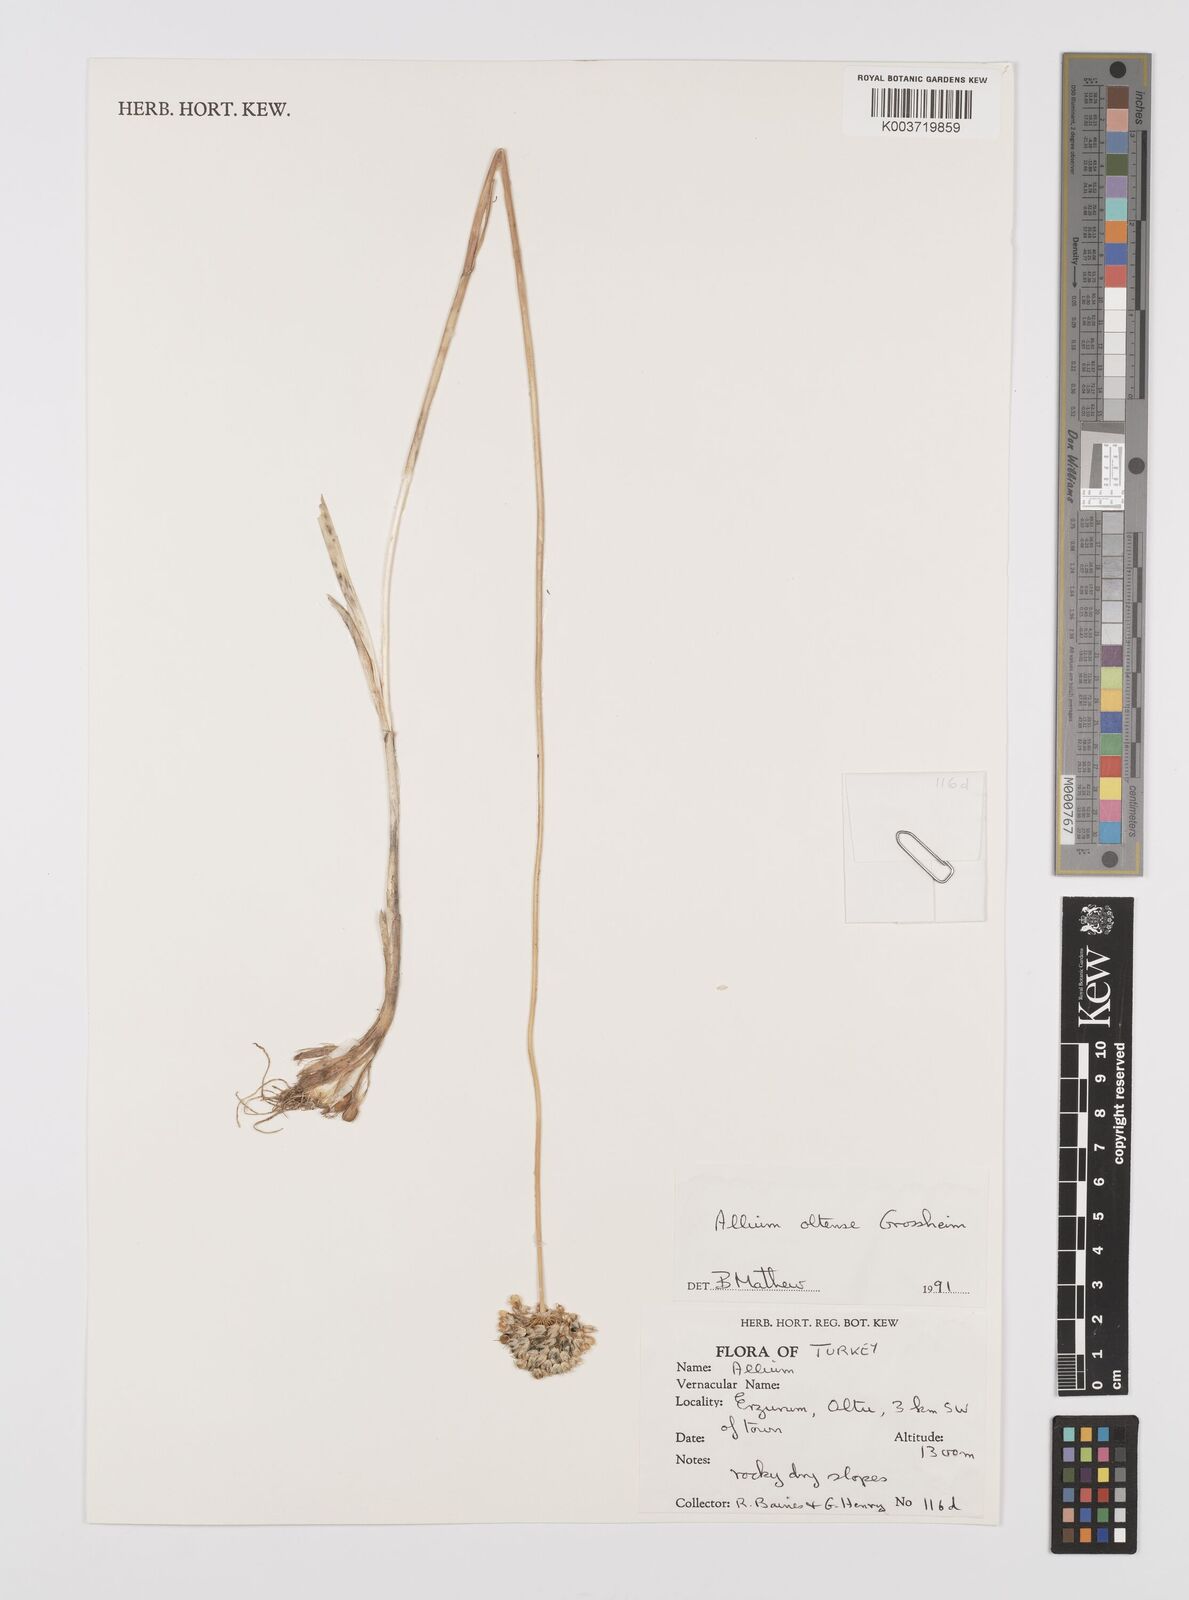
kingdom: Plantae
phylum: Tracheophyta
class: Liliopsida
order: Asparagales
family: Amaryllidaceae
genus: Allium
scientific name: Allium oltense
